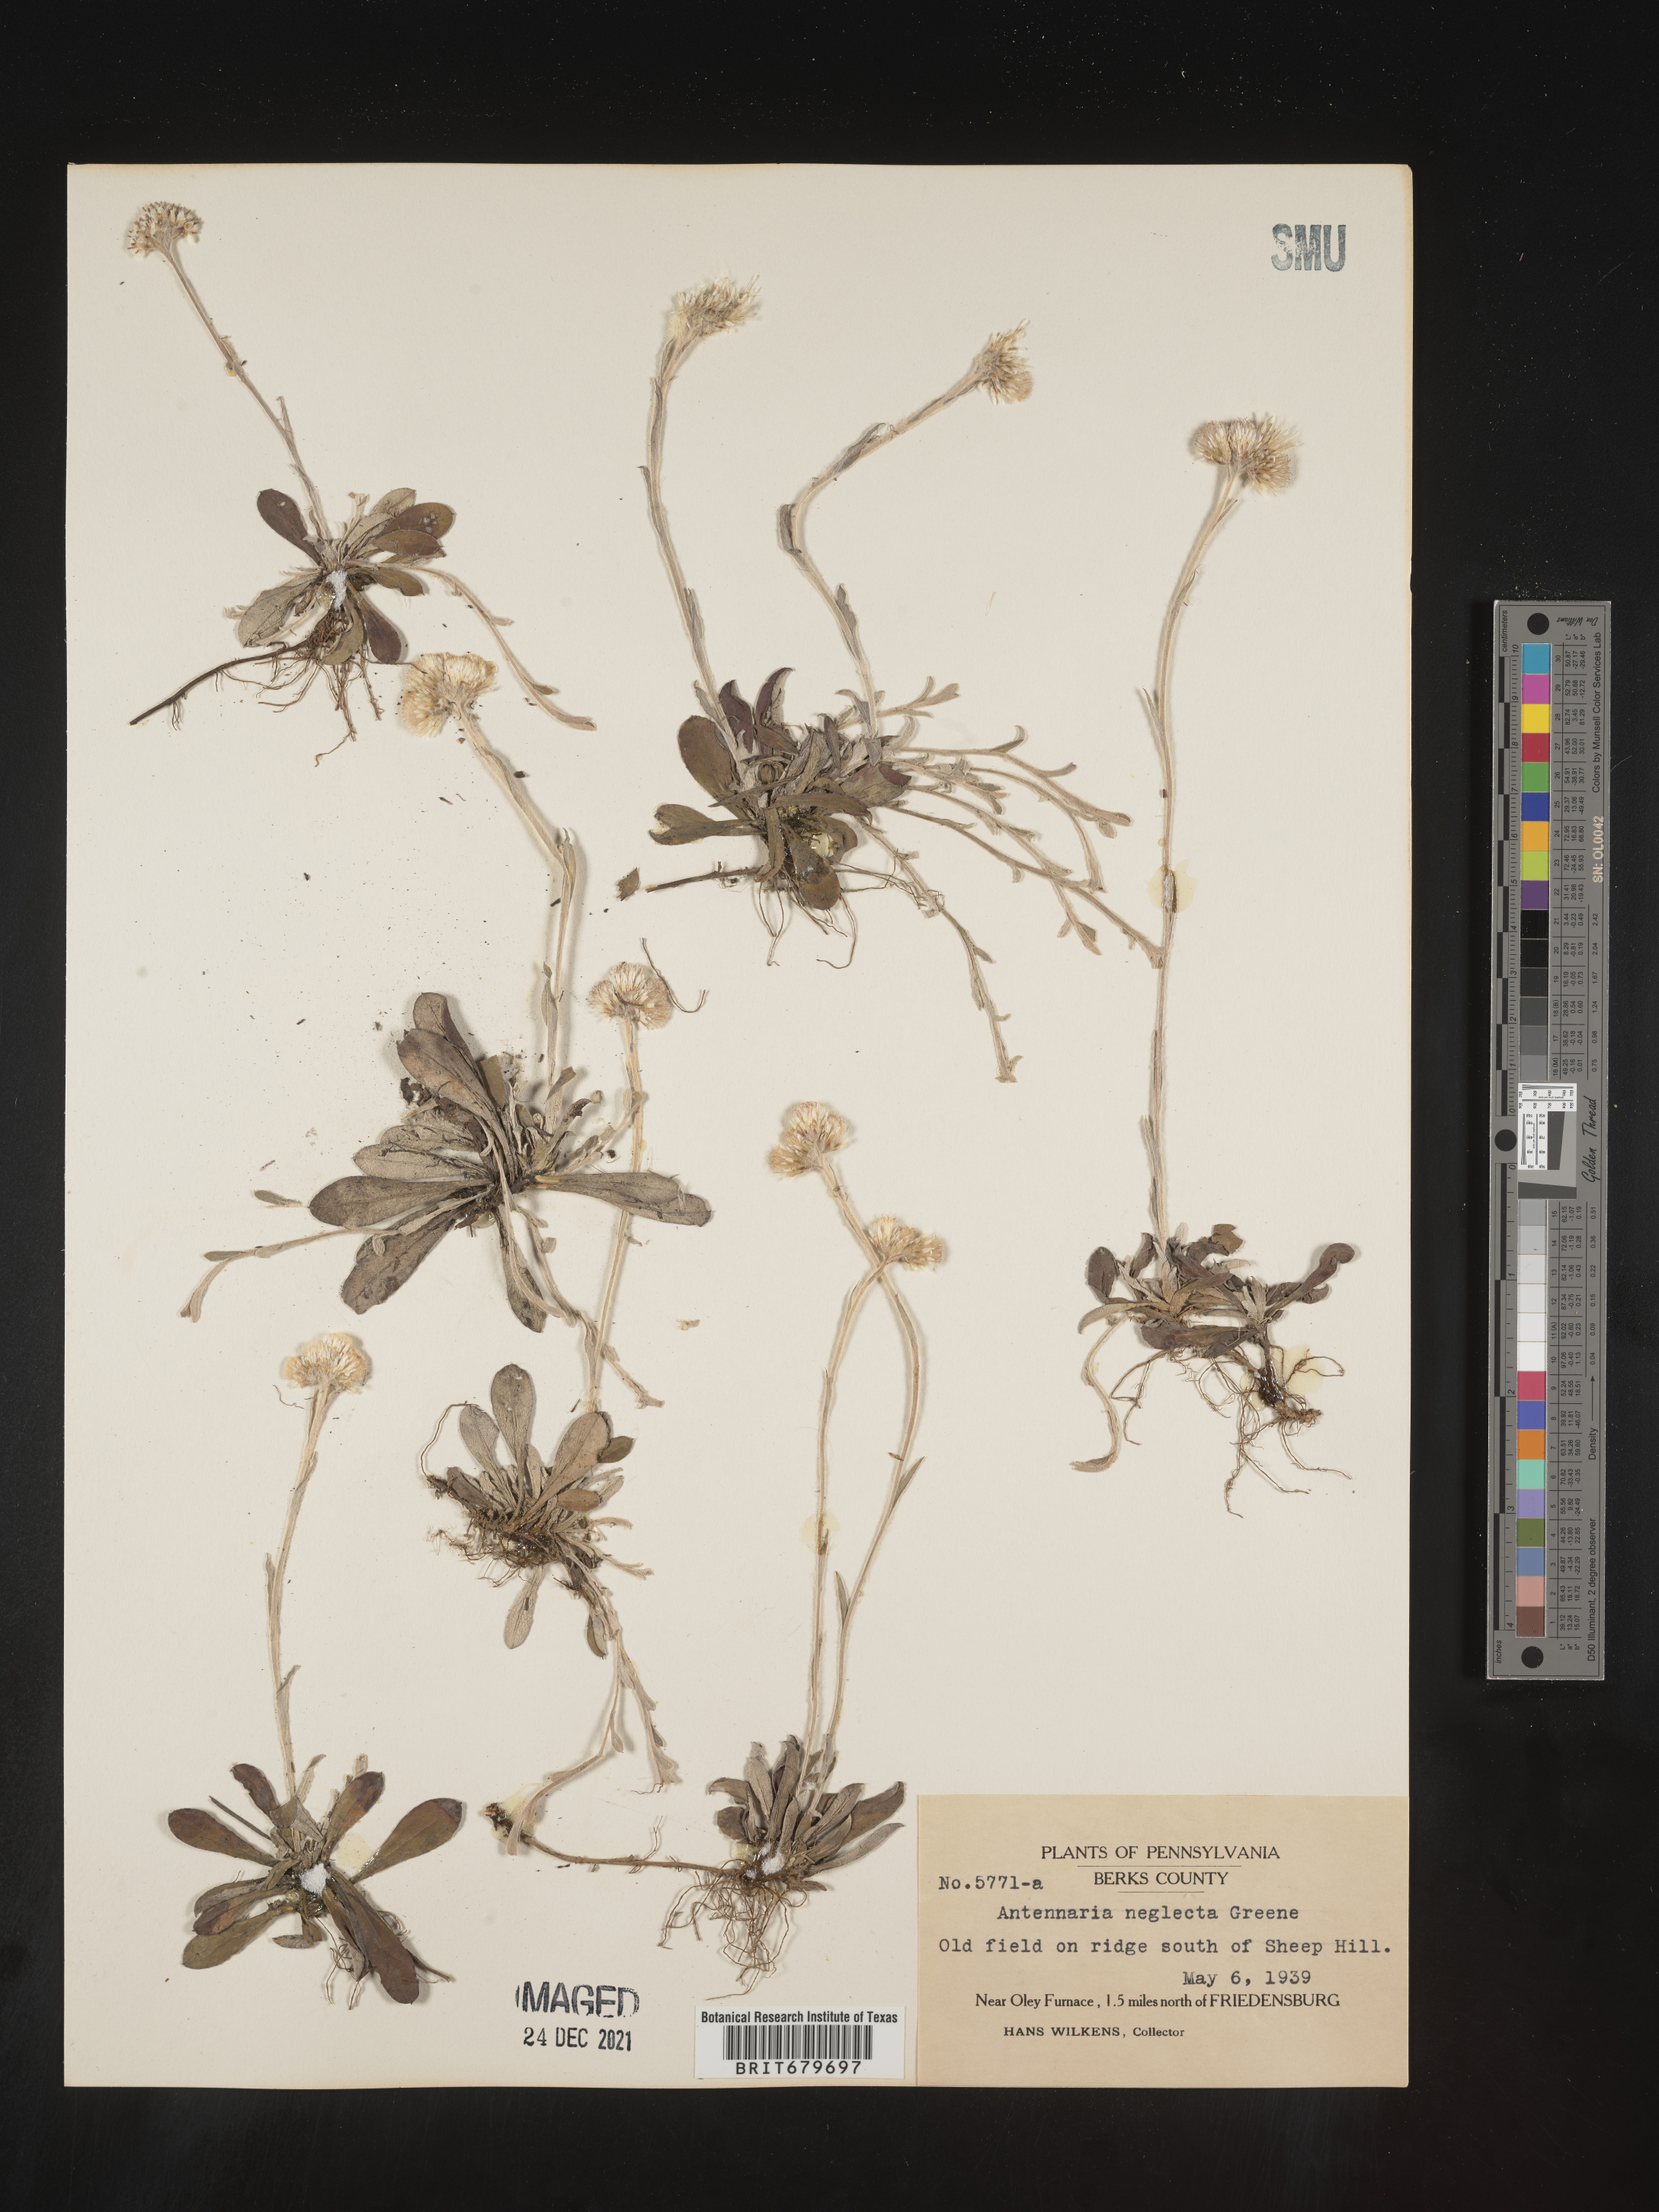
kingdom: Plantae
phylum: Tracheophyta
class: Magnoliopsida
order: Asterales
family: Asteraceae
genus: Antennaria
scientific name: Antennaria neglecta
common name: Field pussytoes
